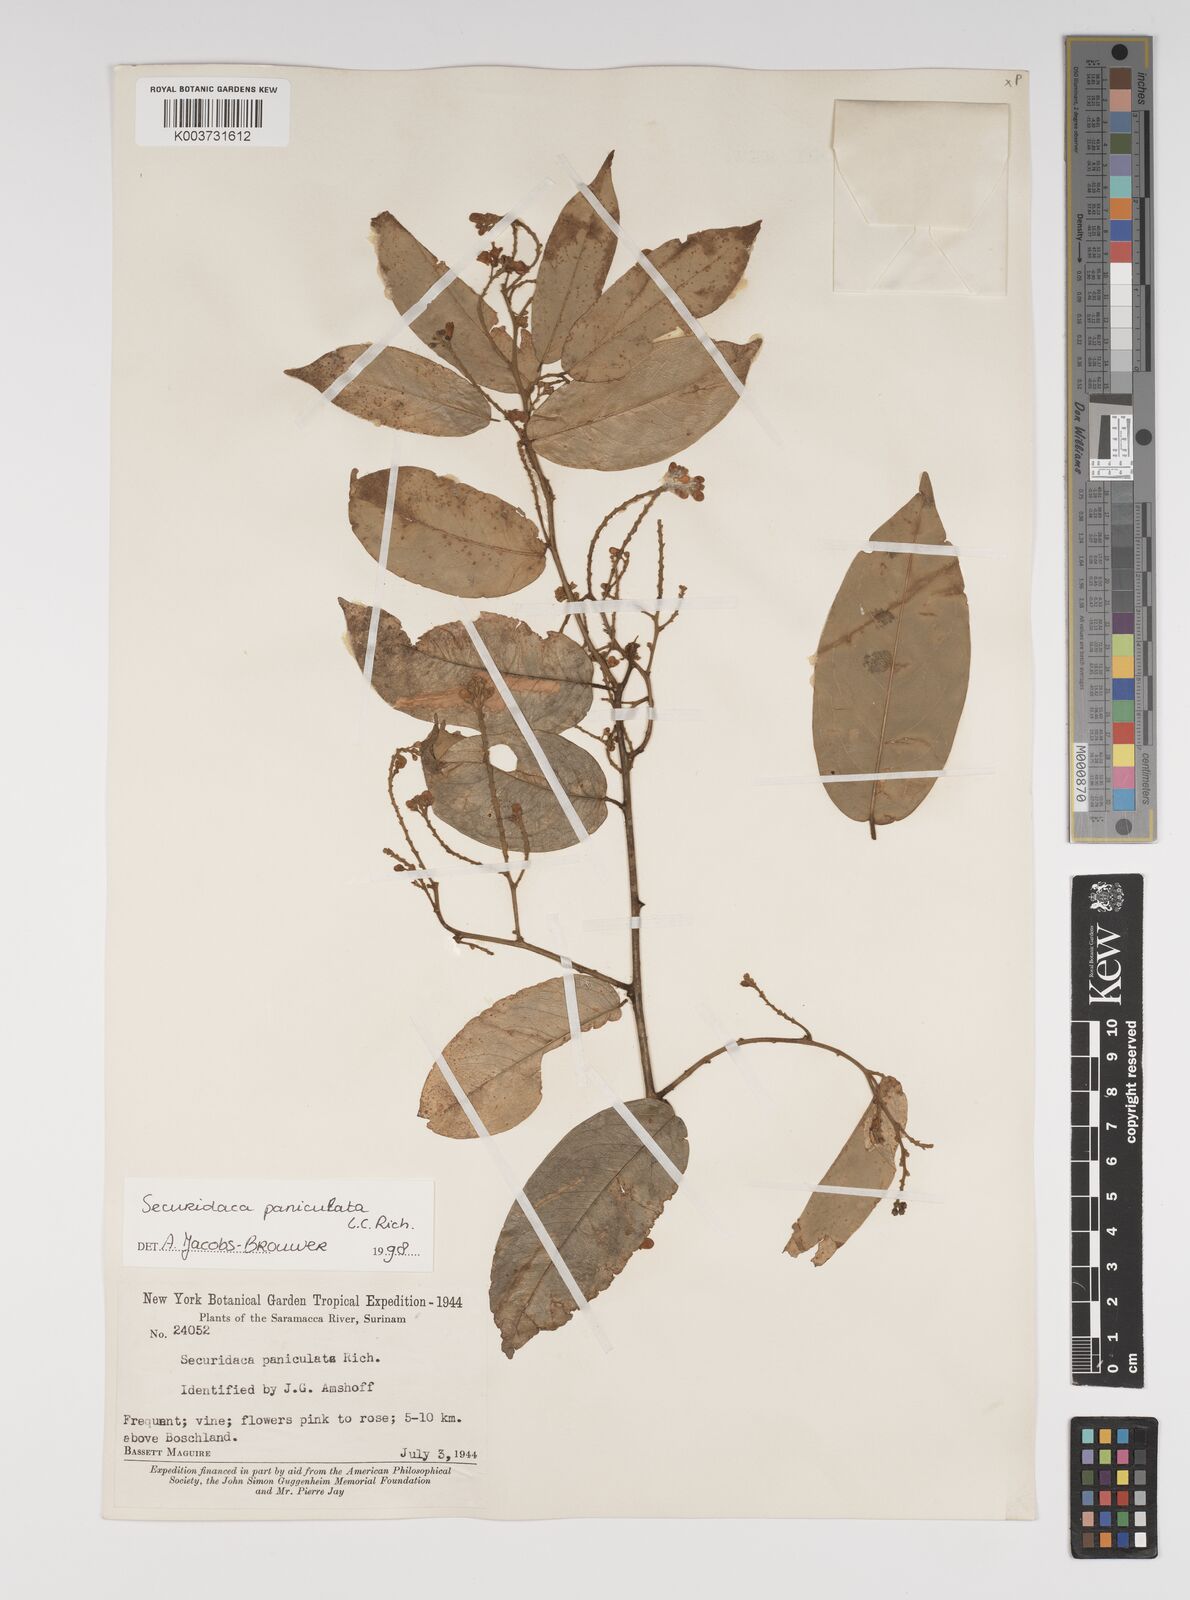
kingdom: Plantae
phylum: Tracheophyta
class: Magnoliopsida
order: Fabales
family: Polygalaceae
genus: Securidaca
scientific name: Securidaca paniculata
